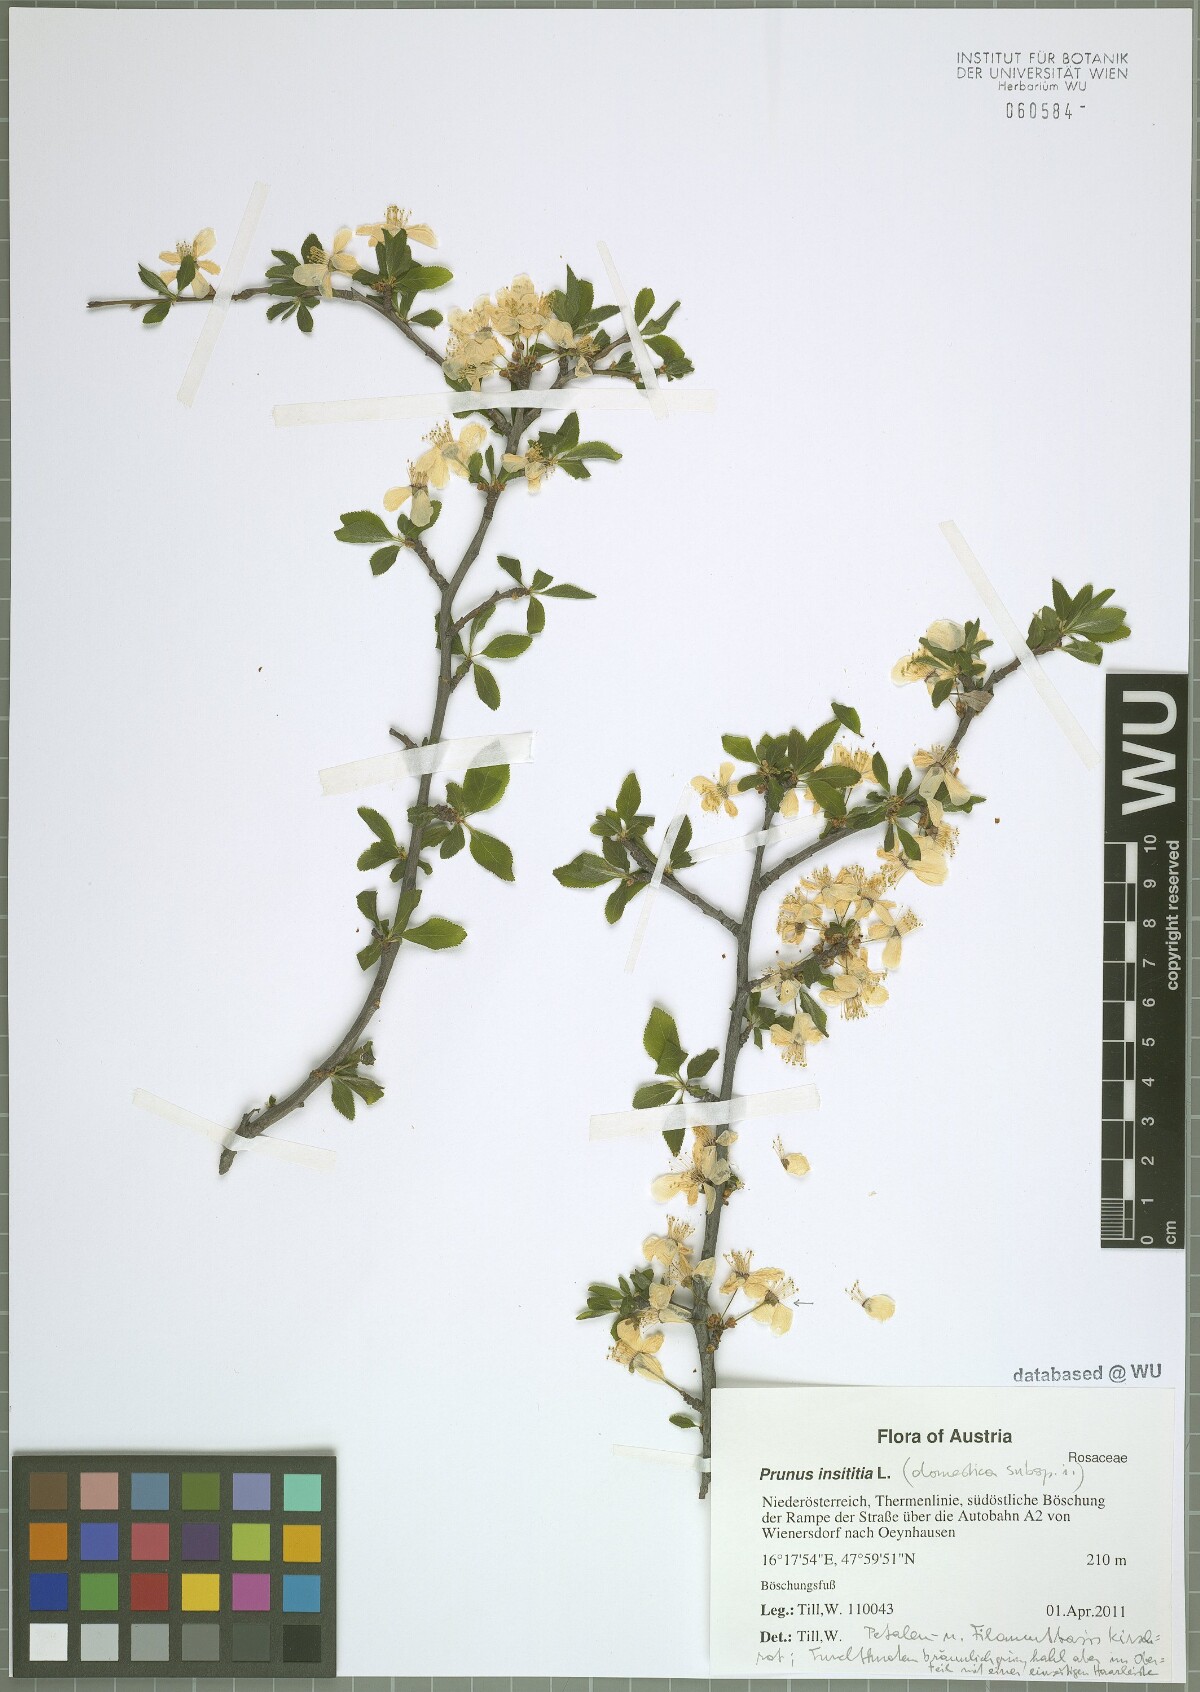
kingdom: Plantae
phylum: Tracheophyta
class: Magnoliopsida
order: Rosales
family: Rosaceae
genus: Prunus
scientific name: Prunus domestica
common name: Wild plum
